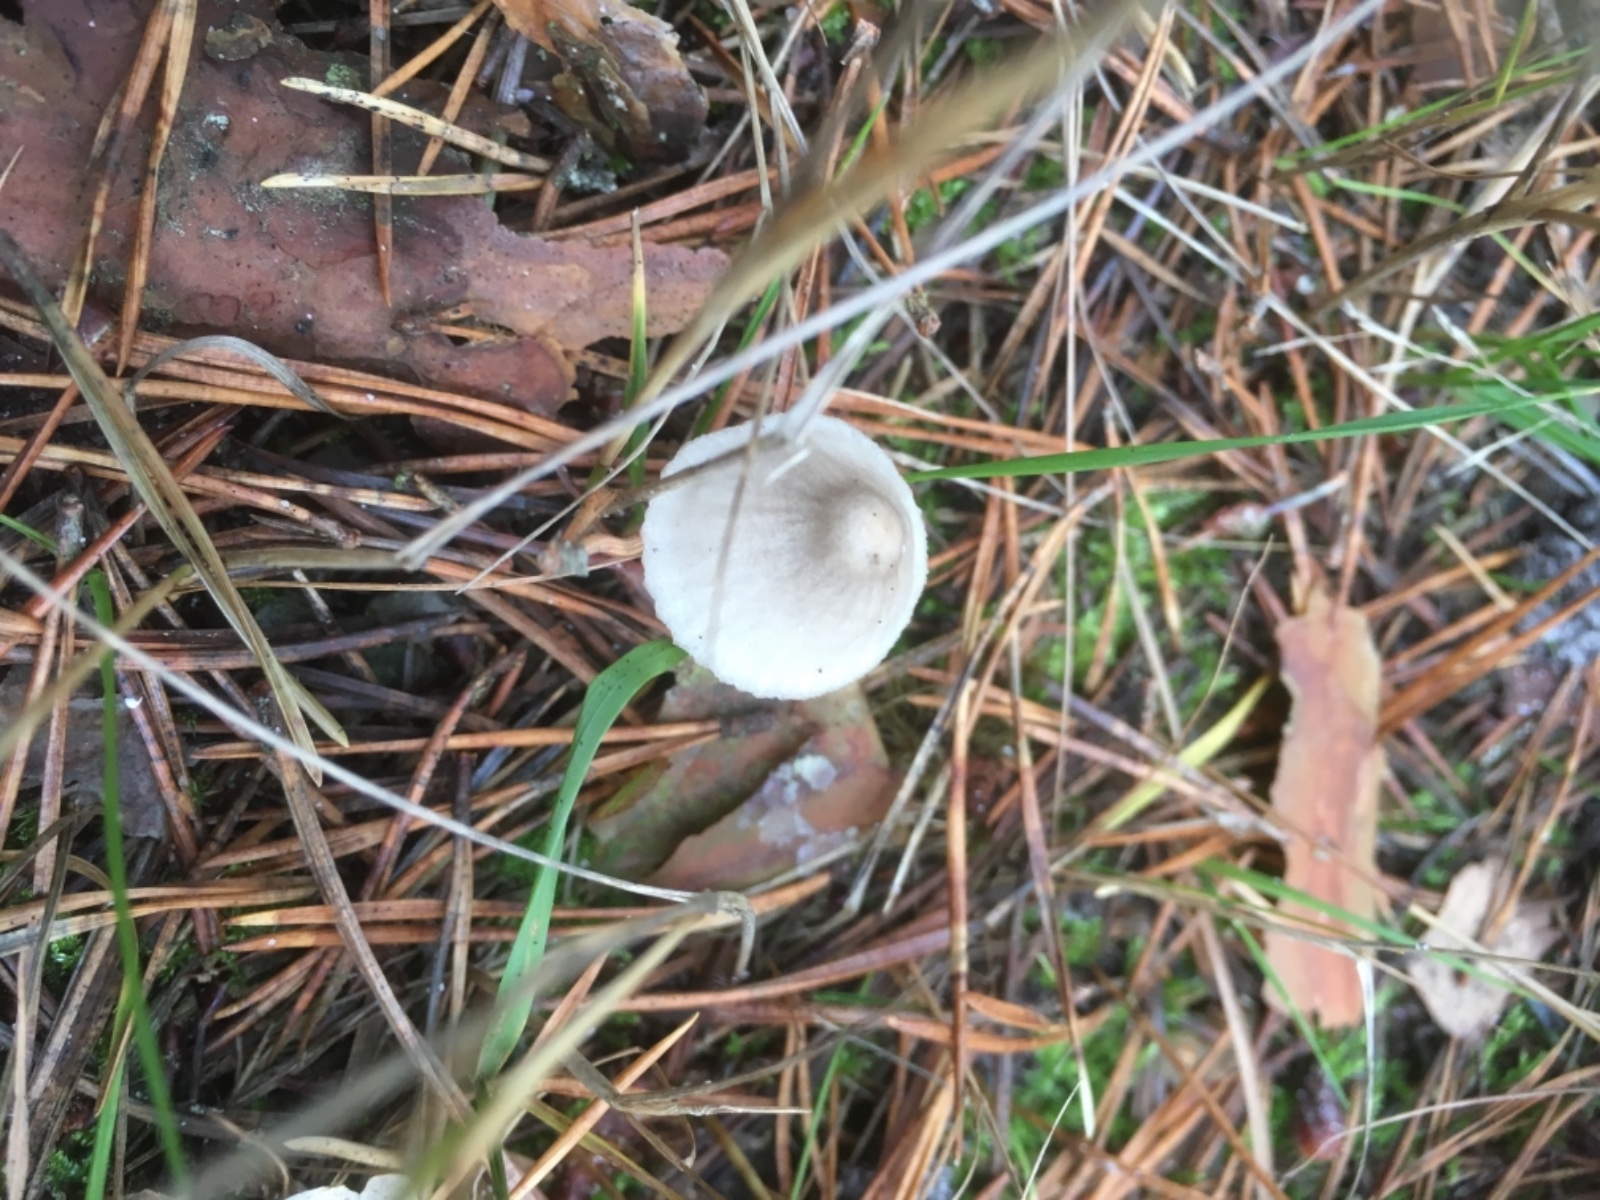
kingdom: Fungi
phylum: Basidiomycota
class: Agaricomycetes
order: Agaricales
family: Mycenaceae
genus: Mycena
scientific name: Mycena
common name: huesvamp
